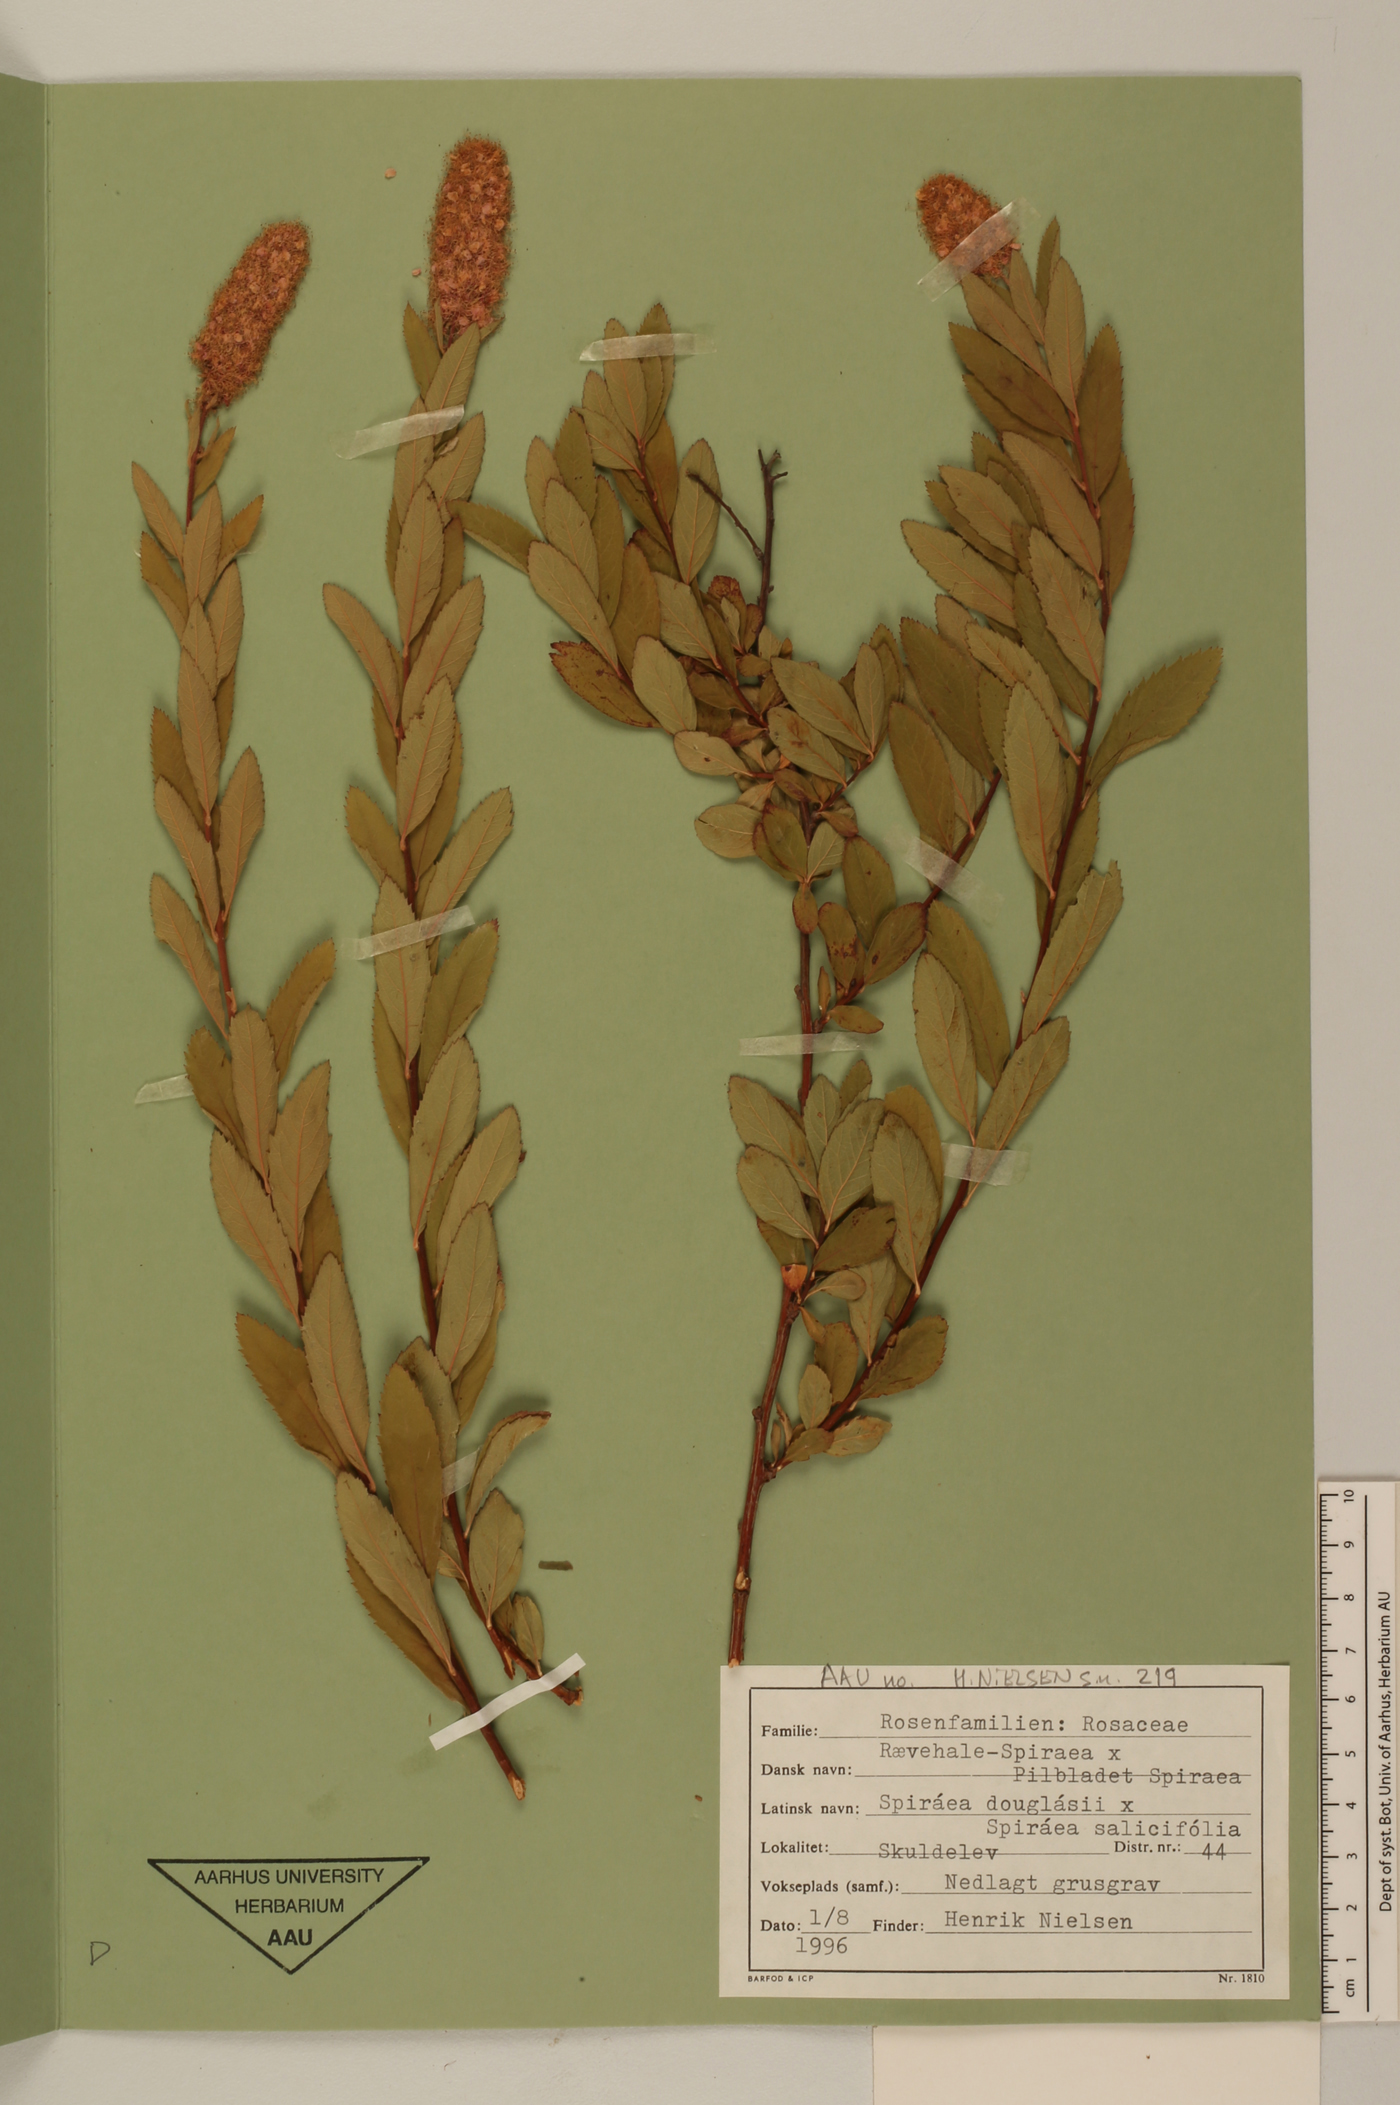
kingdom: Plantae
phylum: Tracheophyta
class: Magnoliopsida
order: Rosales
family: Rosaceae
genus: Spiraea
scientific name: Spiraea douglasii
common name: Steeplebush
